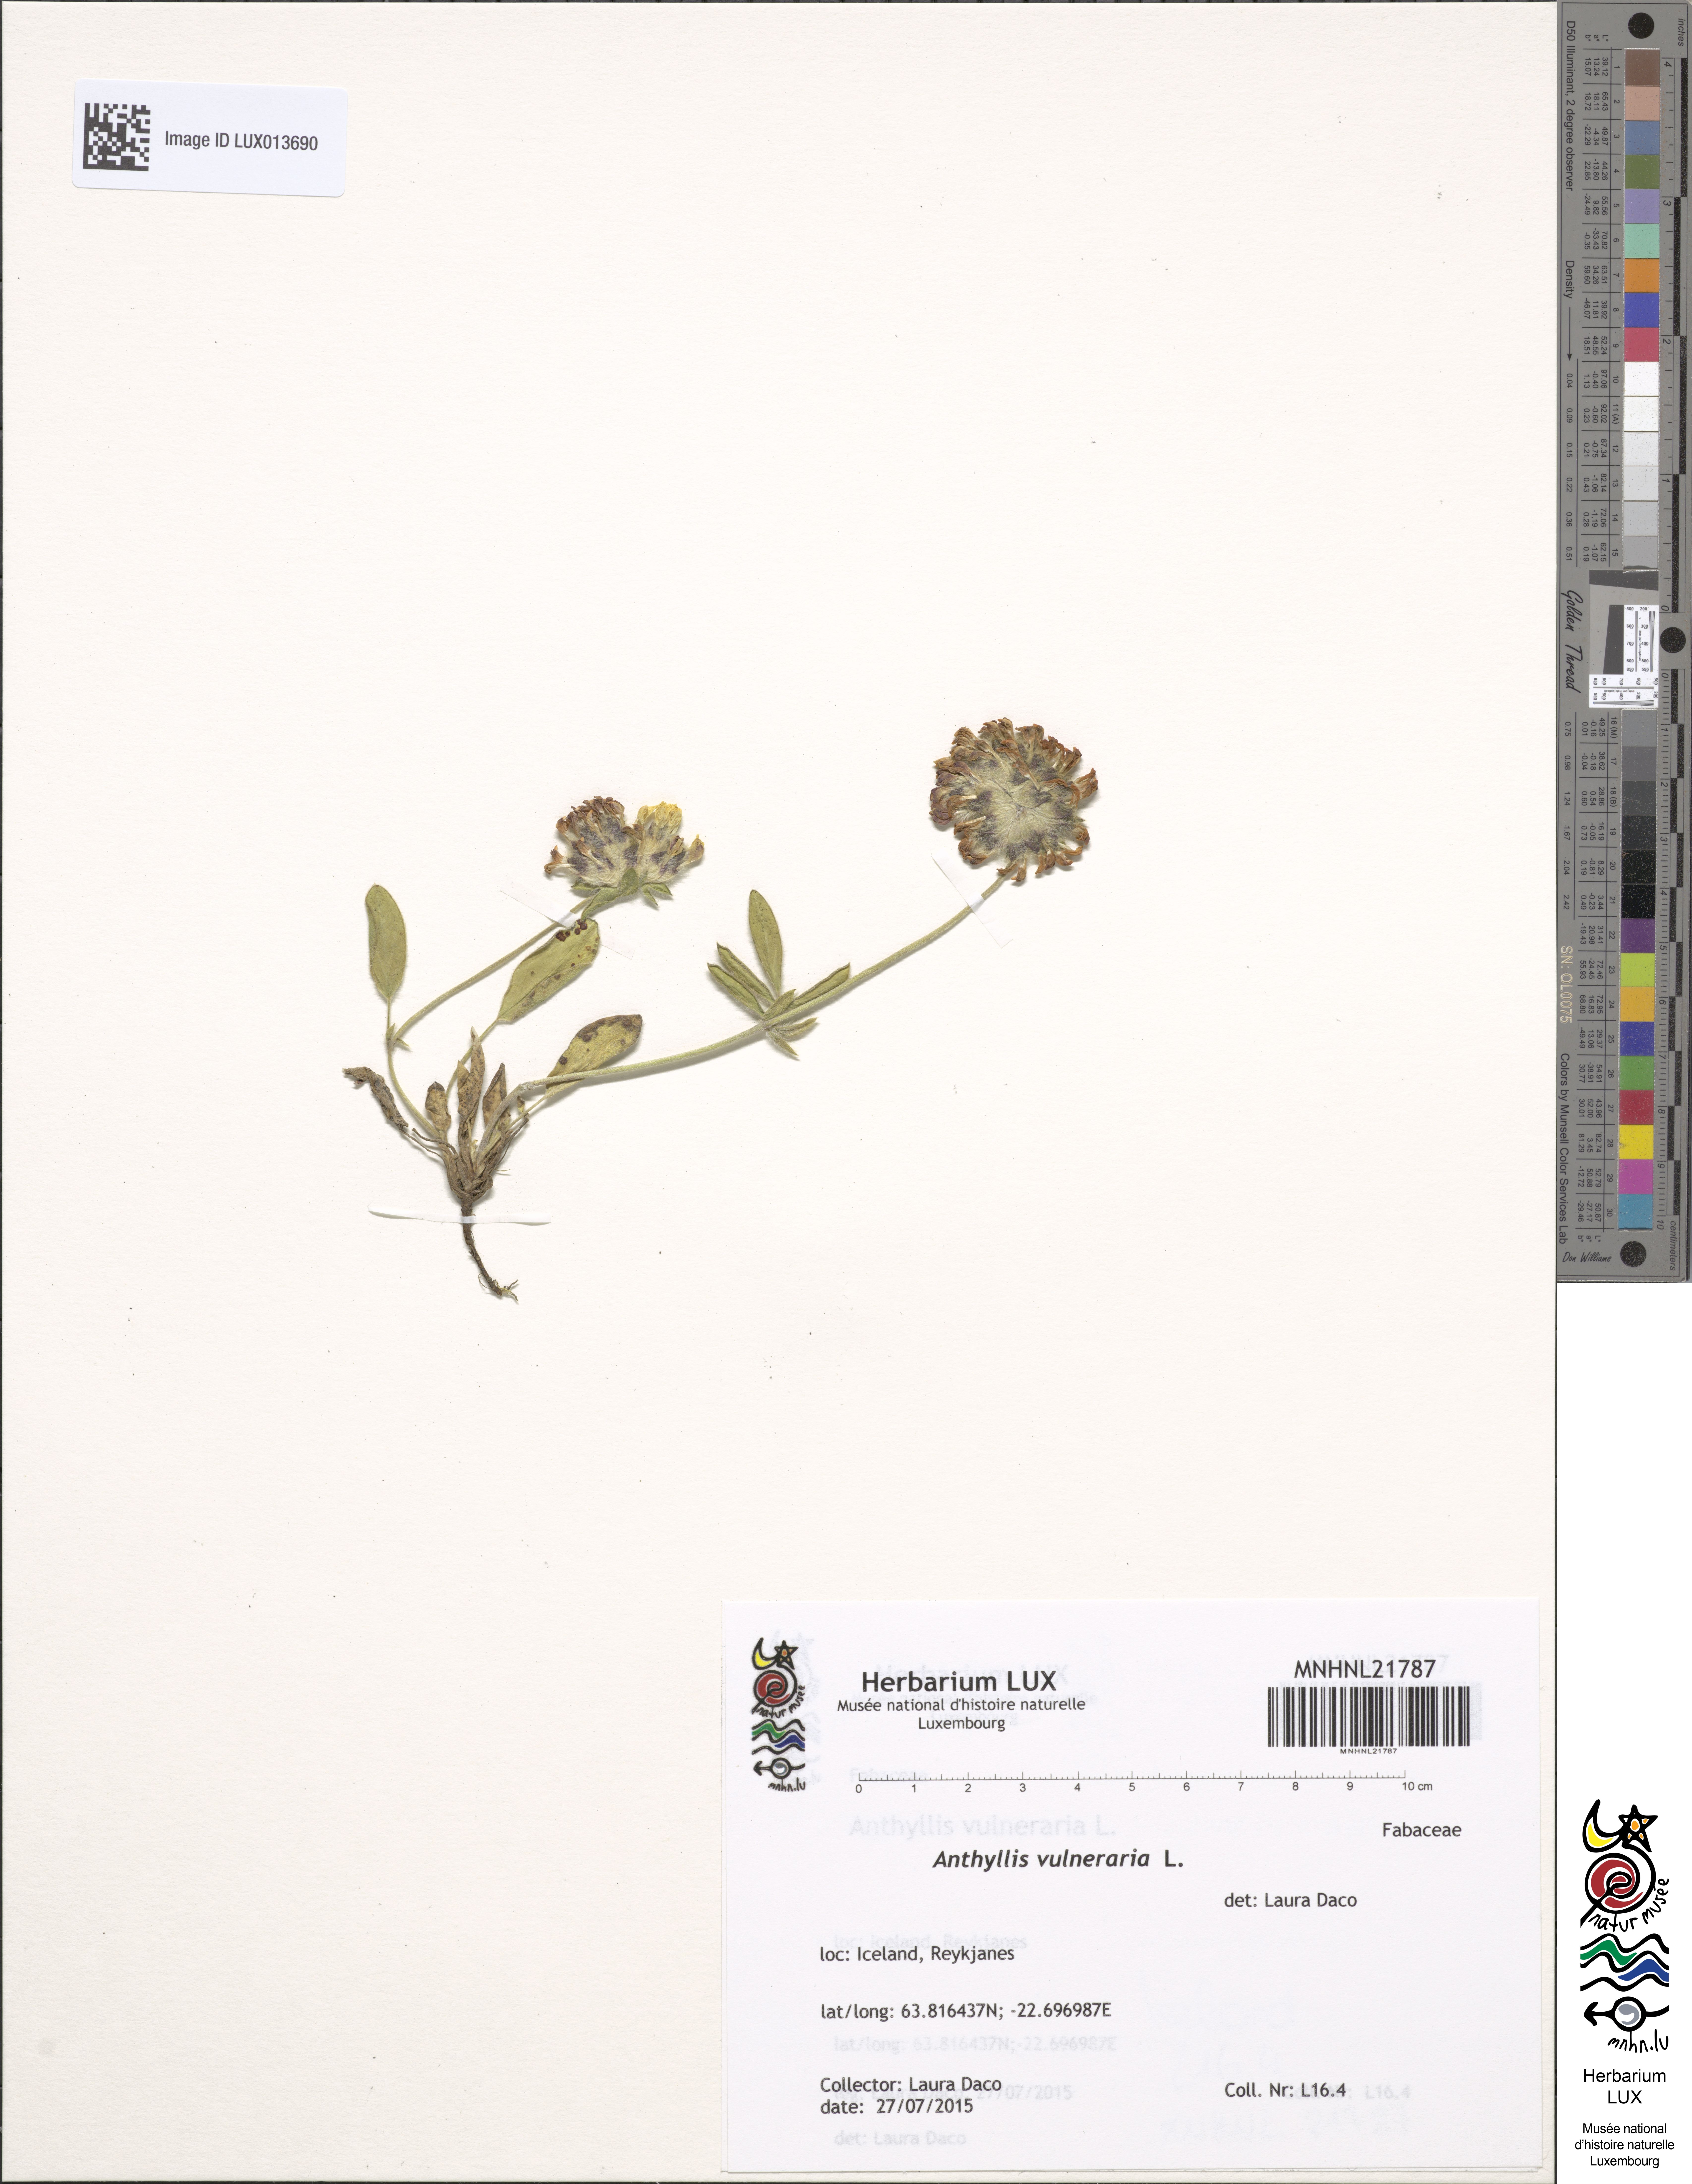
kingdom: Plantae
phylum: Tracheophyta
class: Magnoliopsida
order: Fabales
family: Fabaceae
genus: Anthyllis
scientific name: Anthyllis vulneraria
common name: Kidney vetch
